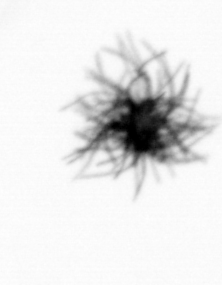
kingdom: Bacteria
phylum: Cyanobacteria
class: Cyanobacteriia
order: Cyanobacteriales
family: Microcoleaceae
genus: Trichodesmium
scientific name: Trichodesmium
